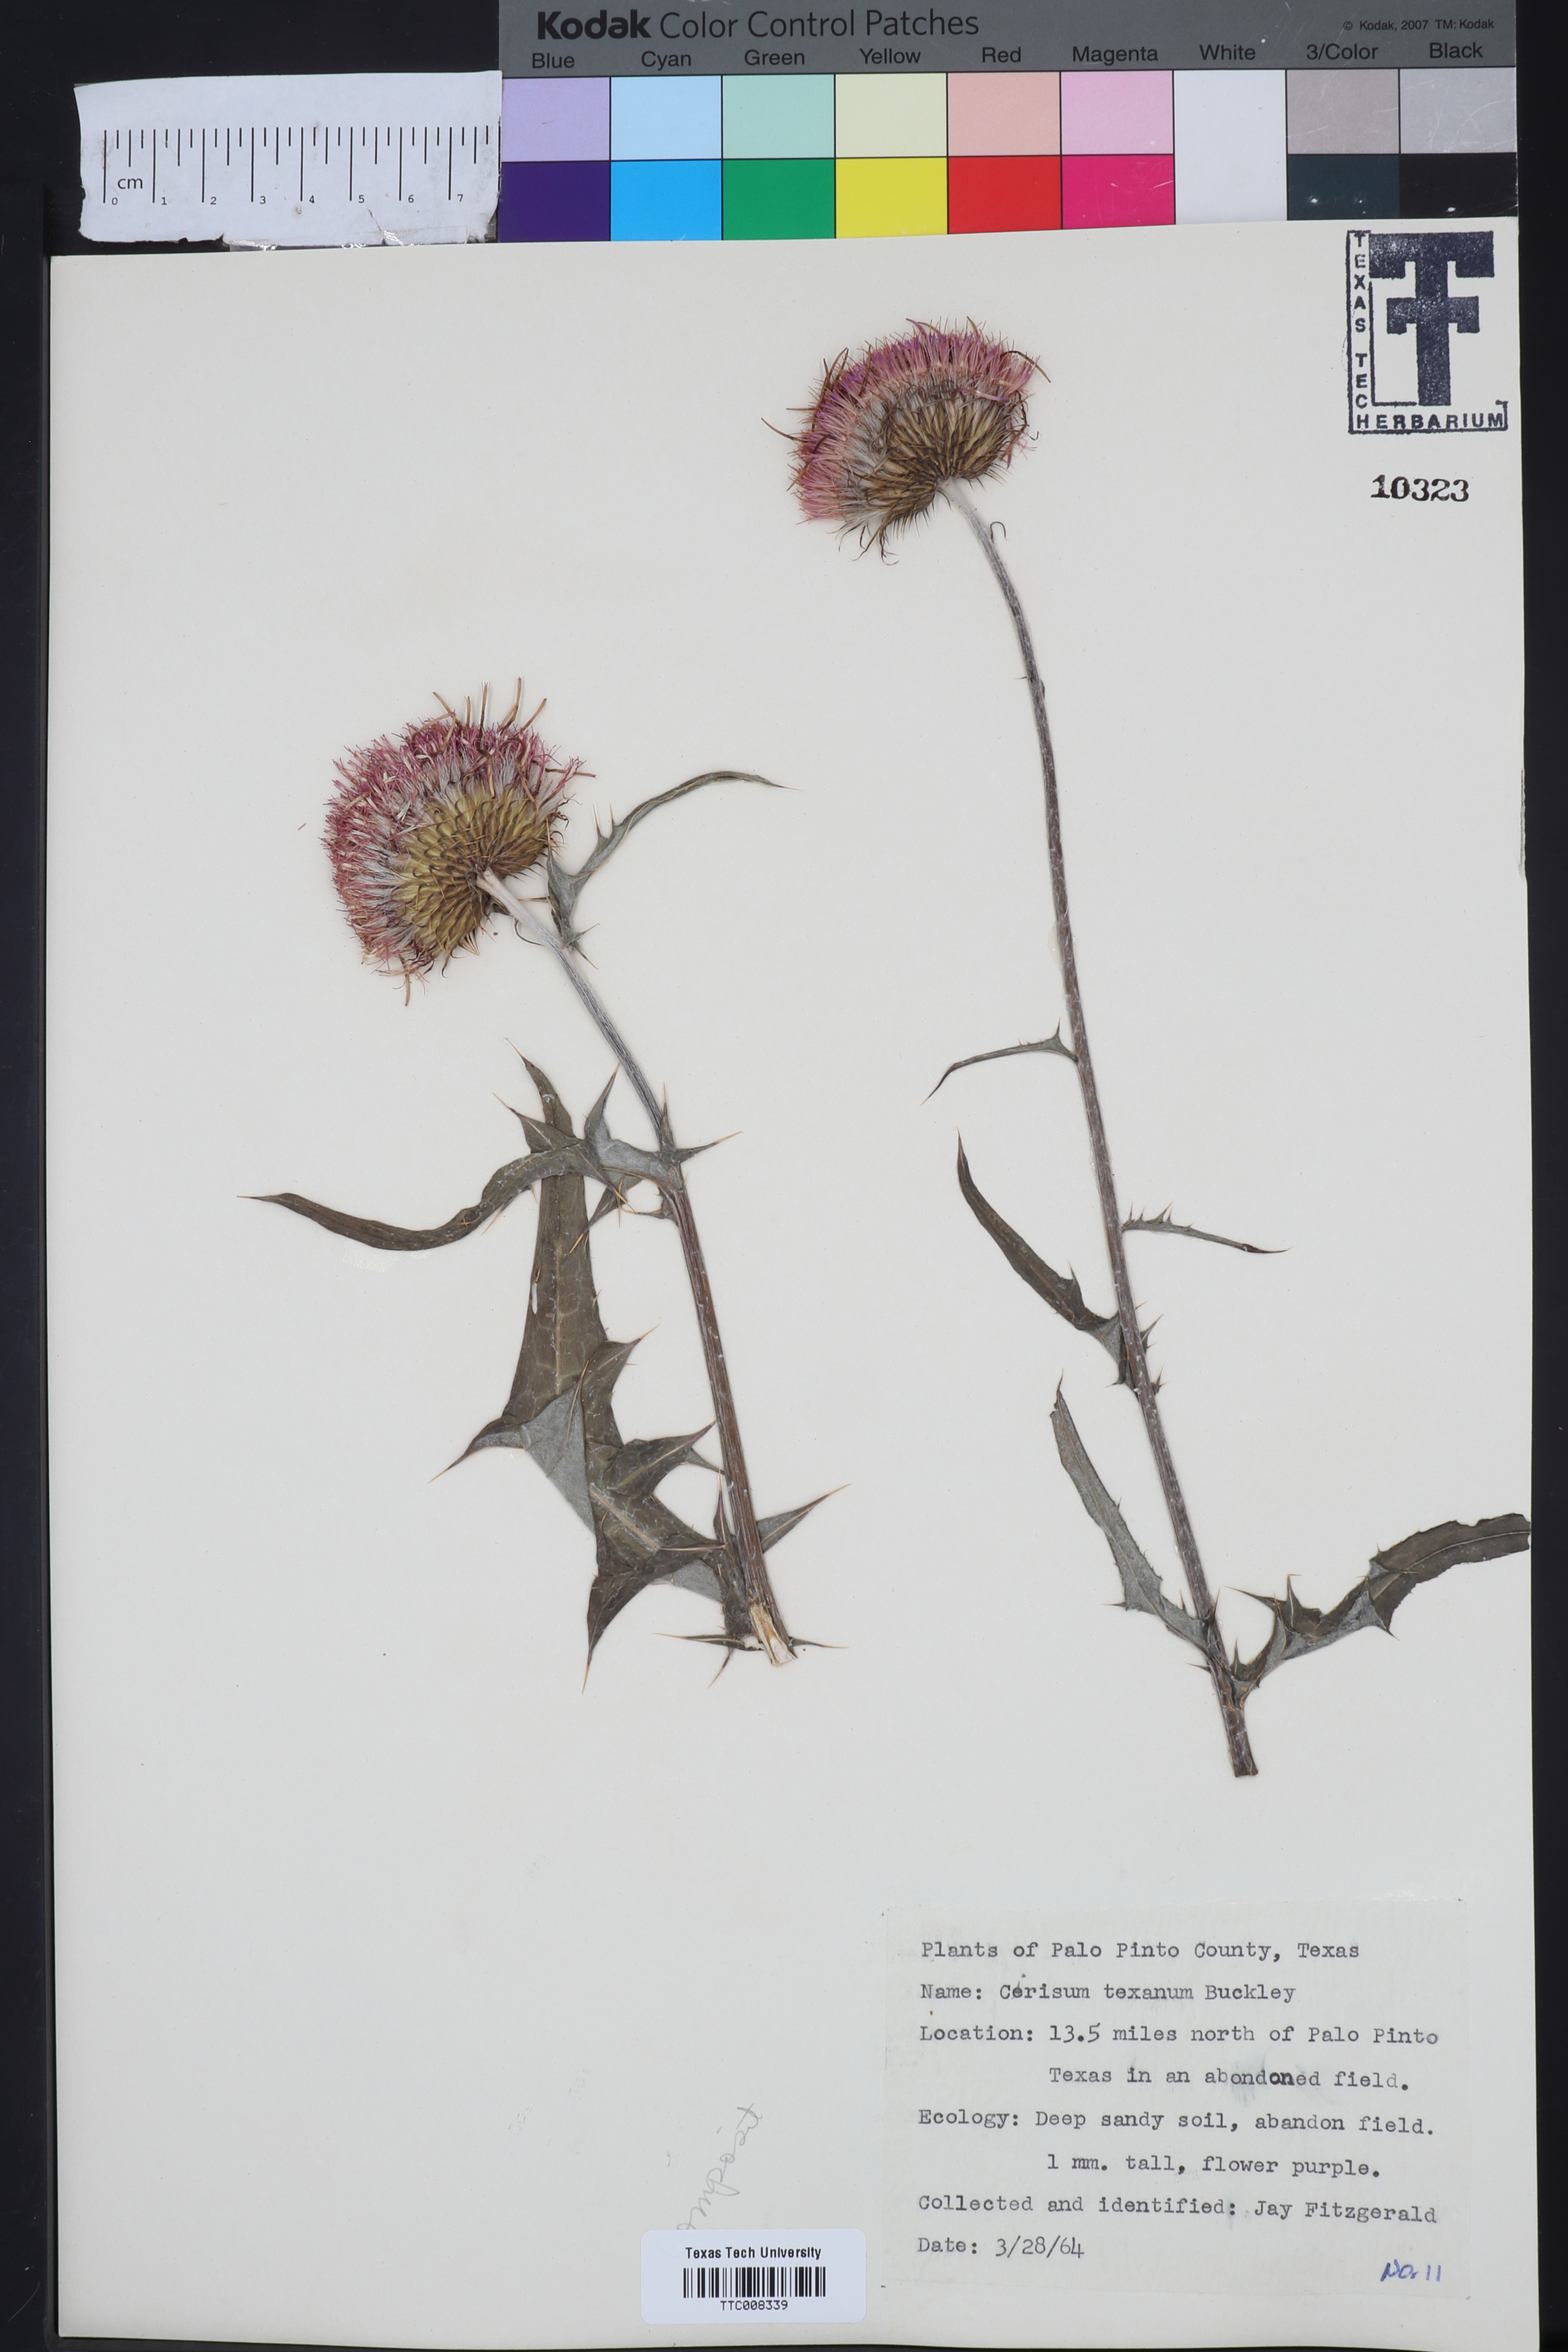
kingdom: Plantae
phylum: Tracheophyta
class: Magnoliopsida
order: Asterales
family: Asteraceae
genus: Cirsium
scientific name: Cirsium texanum
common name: Texas purple thistle
